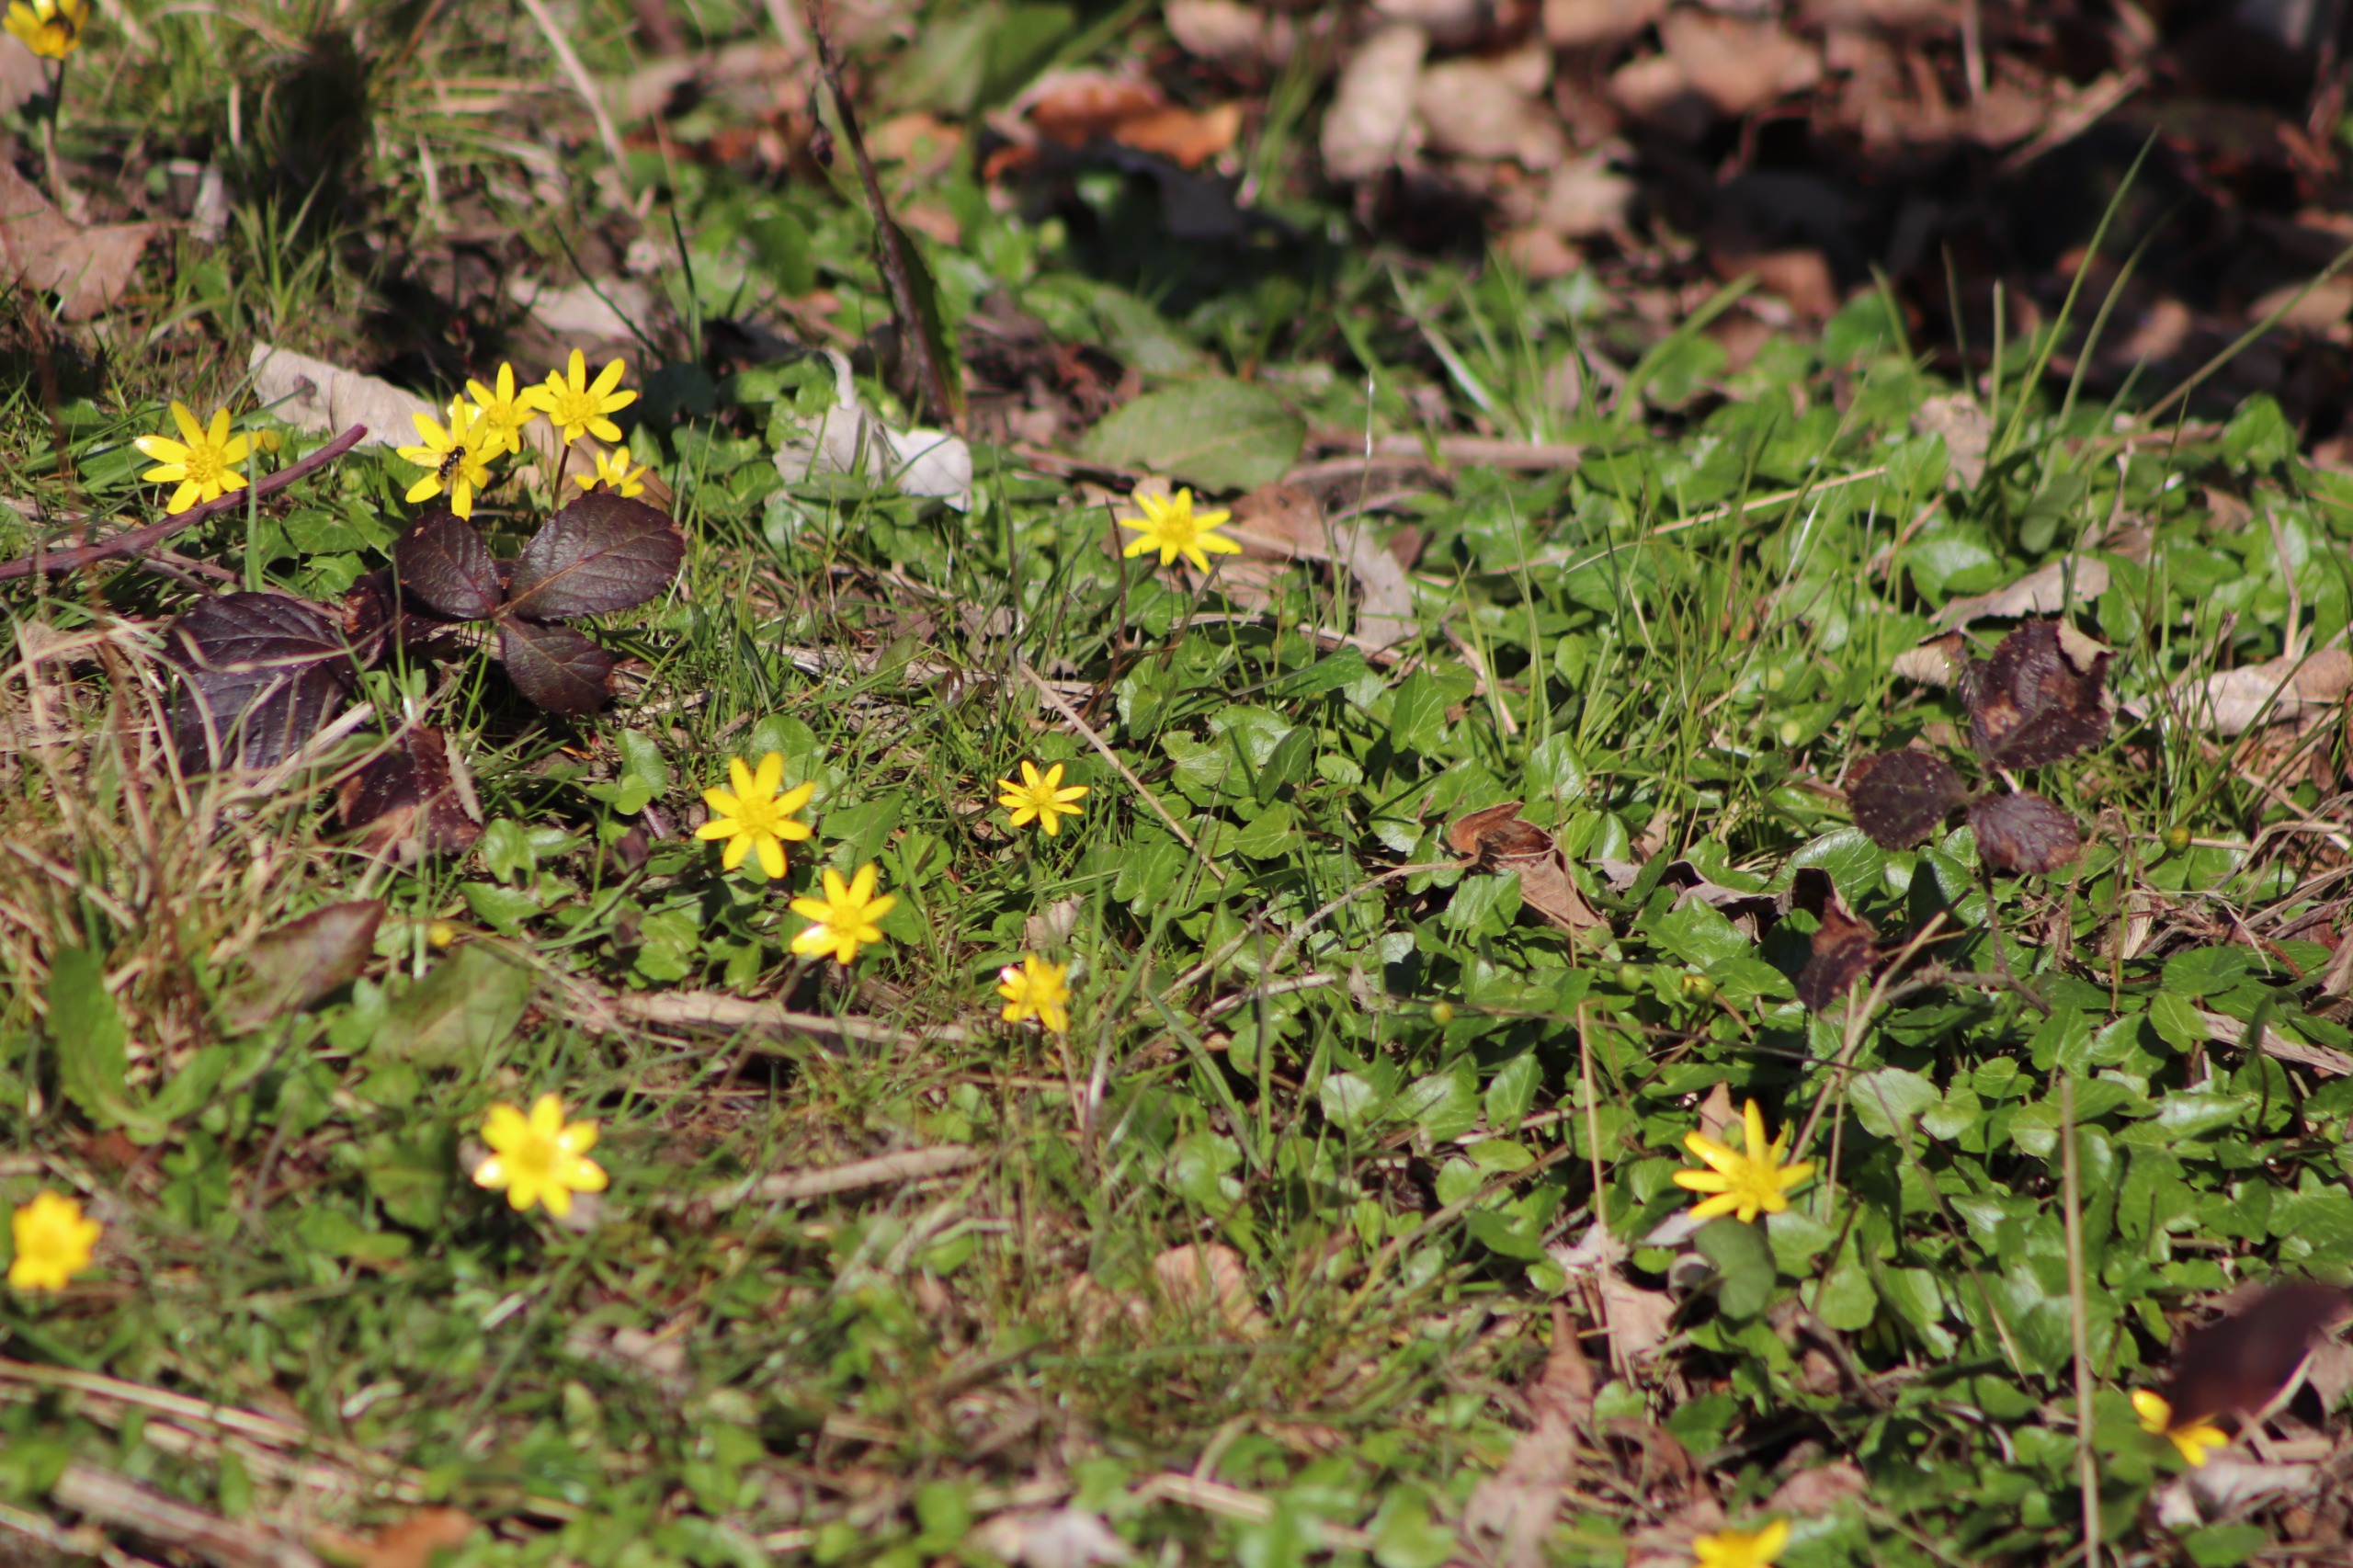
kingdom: Plantae
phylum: Tracheophyta
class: Magnoliopsida
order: Ranunculales
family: Ranunculaceae
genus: Ficaria
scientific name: Ficaria verna
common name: Vorterod
